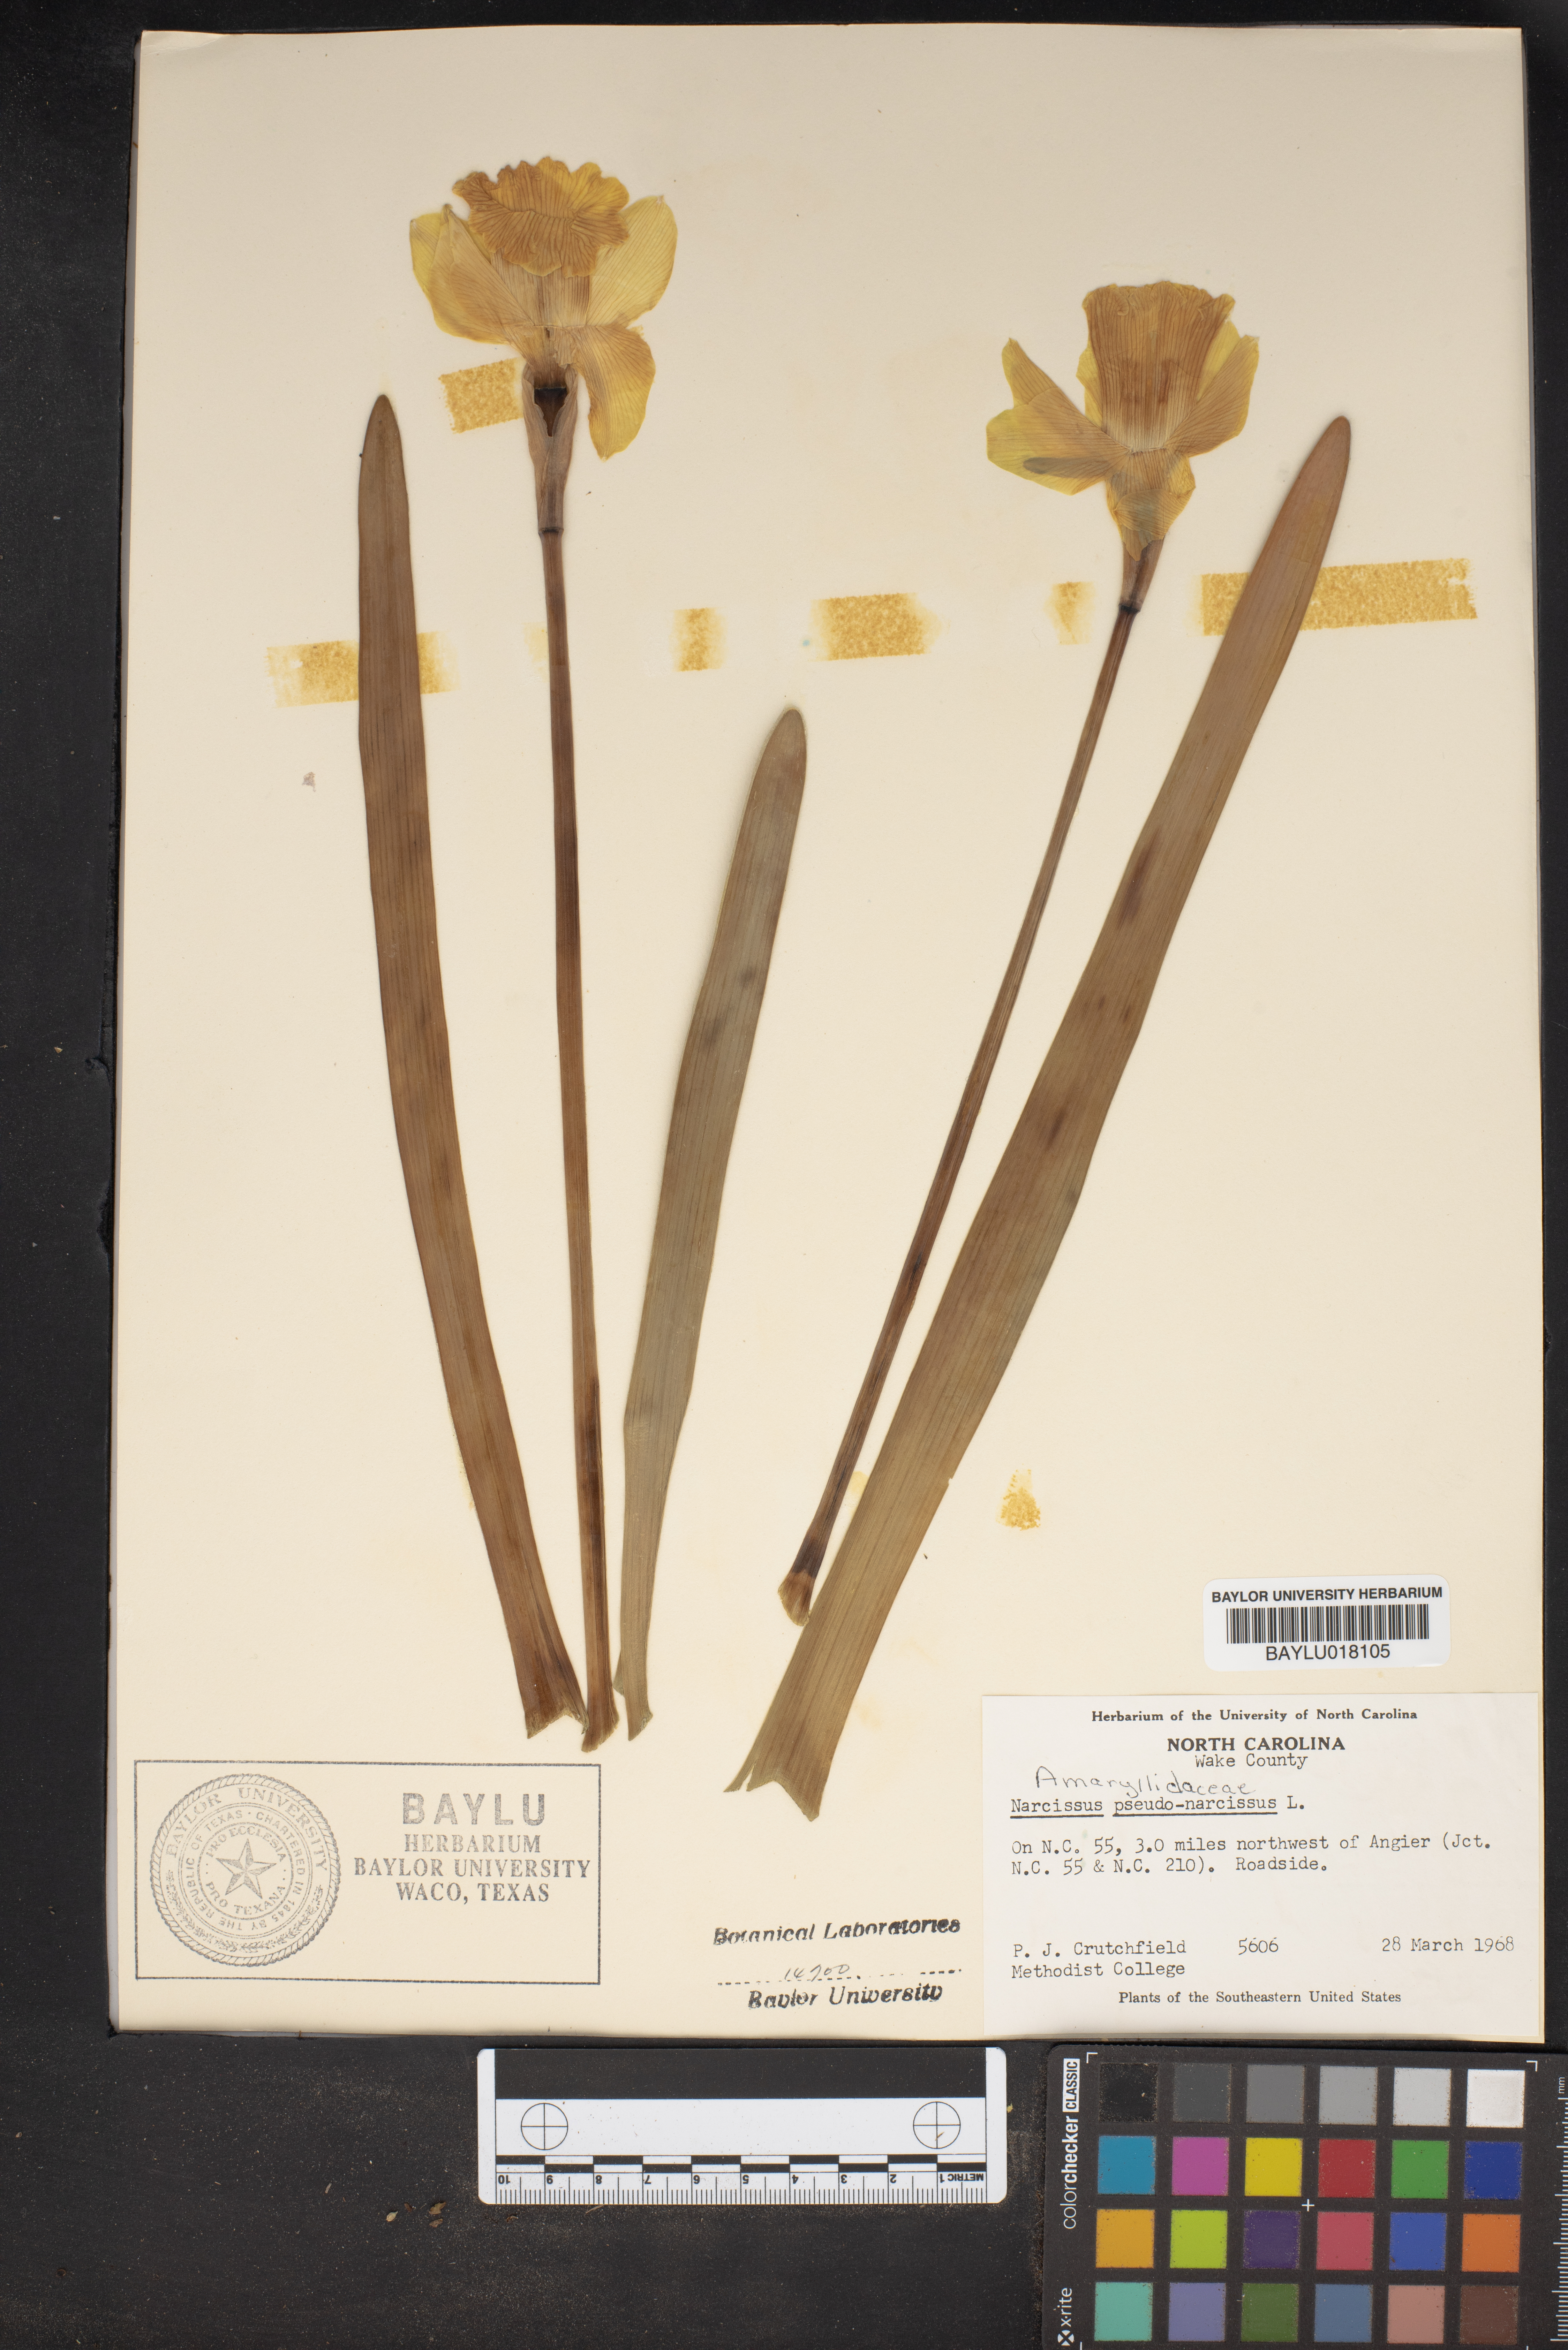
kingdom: Plantae
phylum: Tracheophyta
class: Liliopsida
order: Asparagales
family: Amaryllidaceae
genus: Narcissus
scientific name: Narcissus pseudonarcissus
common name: Daffodil
